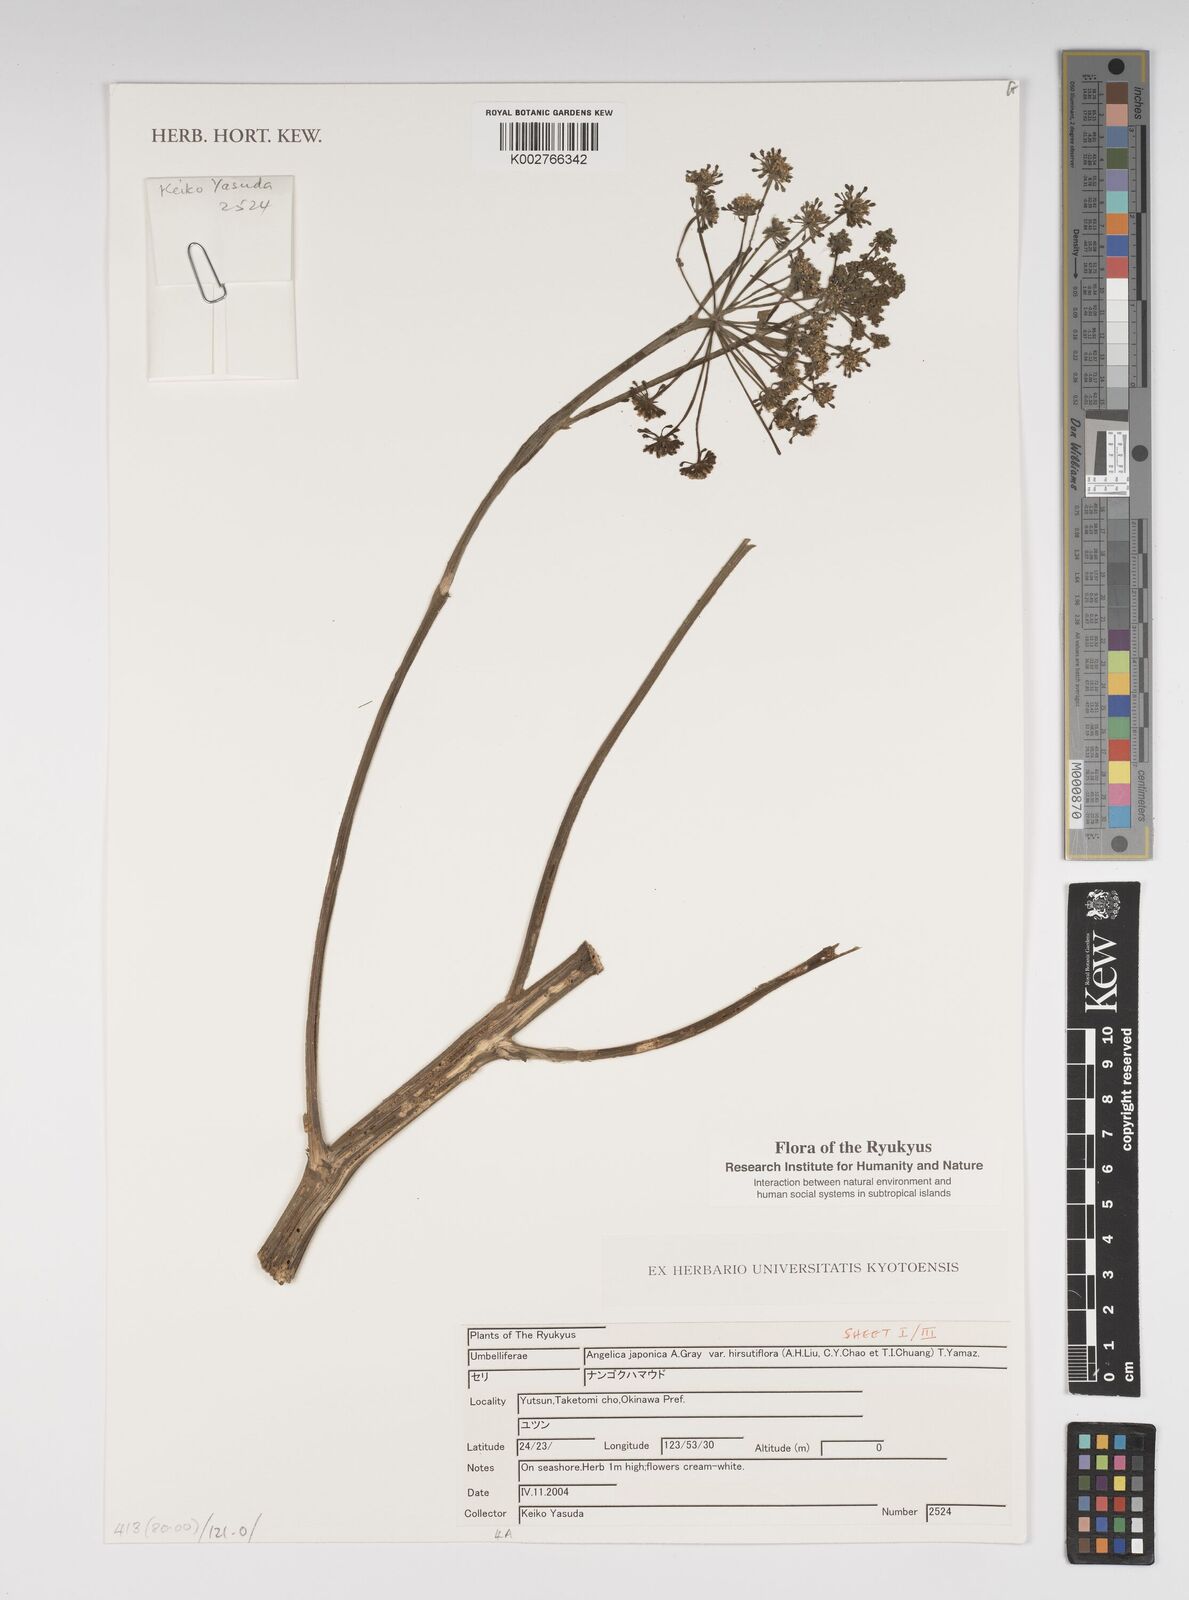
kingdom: Plantae
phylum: Tracheophyta
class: Magnoliopsida
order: Apiales
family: Apiaceae
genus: Angelica
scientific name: Angelica
